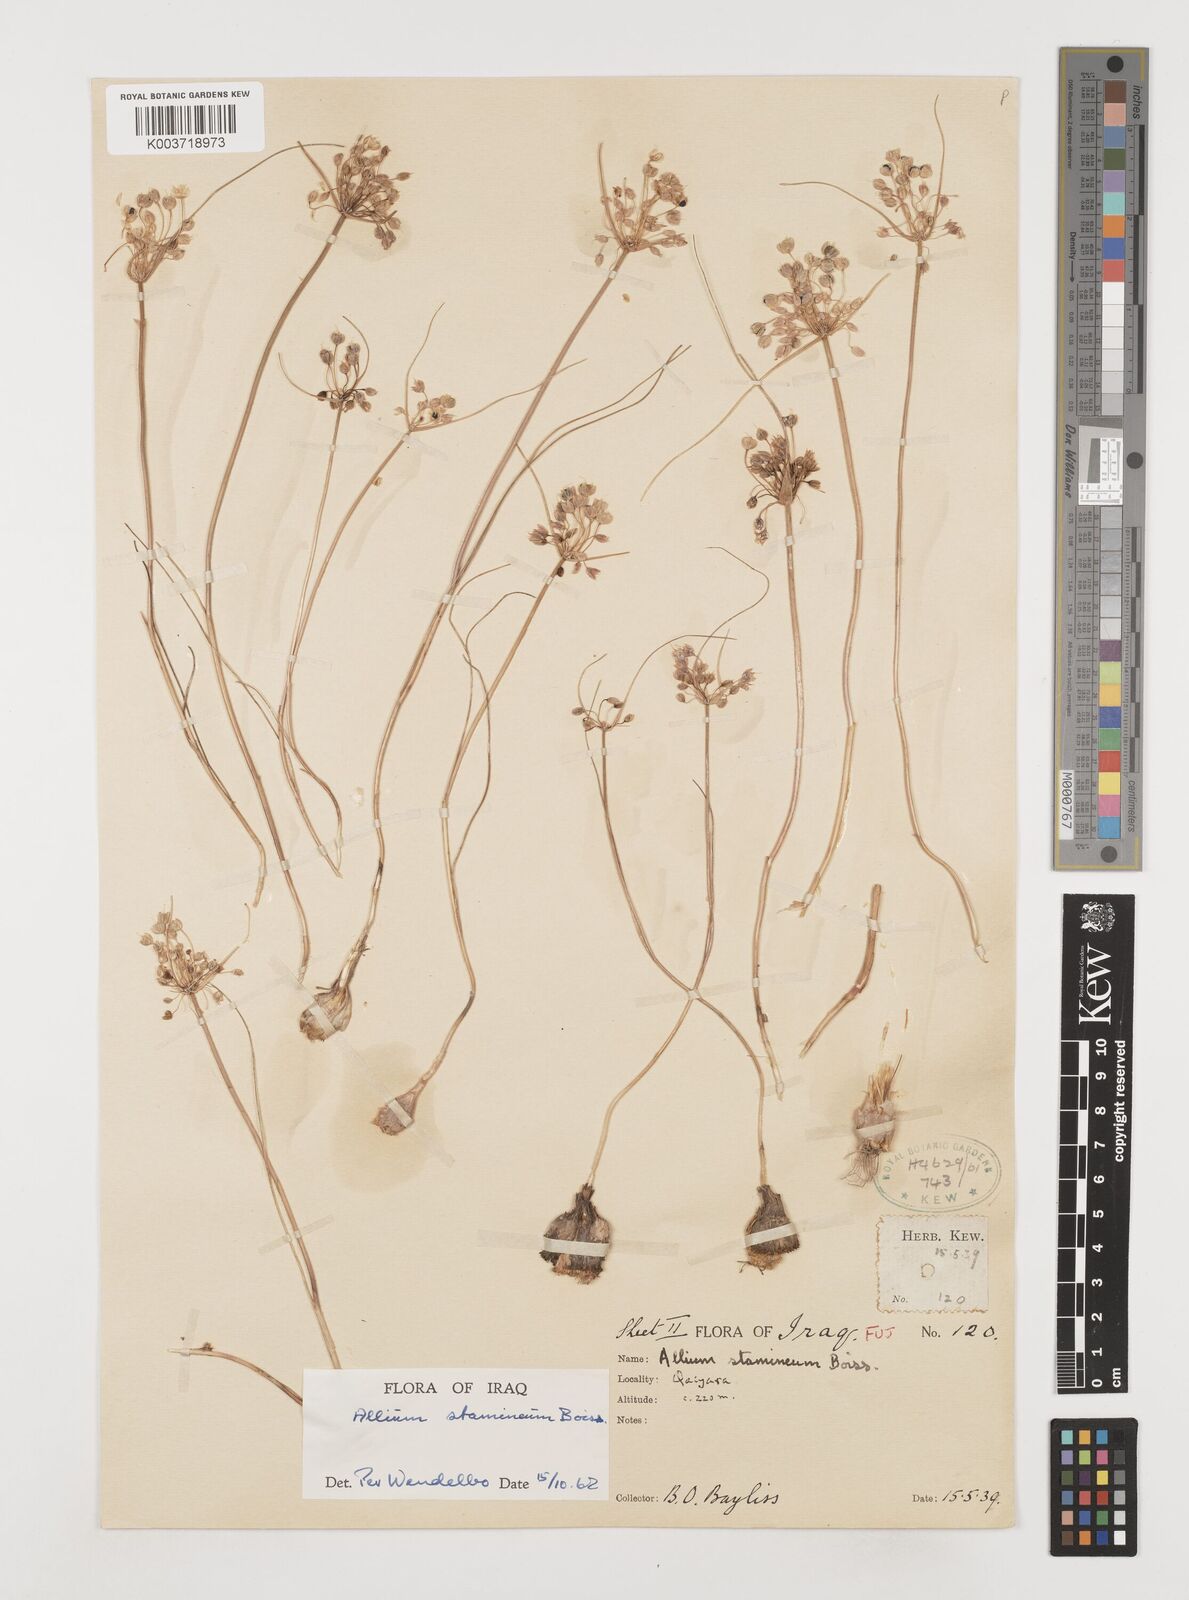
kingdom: Plantae
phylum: Tracheophyta
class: Liliopsida
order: Asparagales
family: Amaryllidaceae
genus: Allium
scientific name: Allium stamineum
